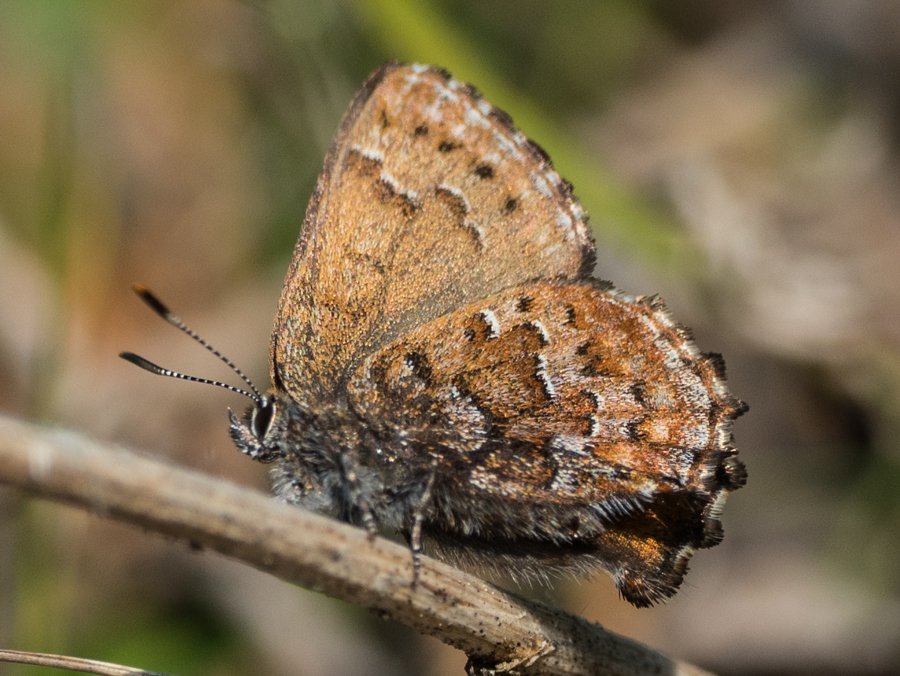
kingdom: Animalia
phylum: Arthropoda
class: Insecta
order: Lepidoptera
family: Lycaenidae
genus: Incisalia
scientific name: Incisalia niphon
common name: Eastern Pine Elfin
